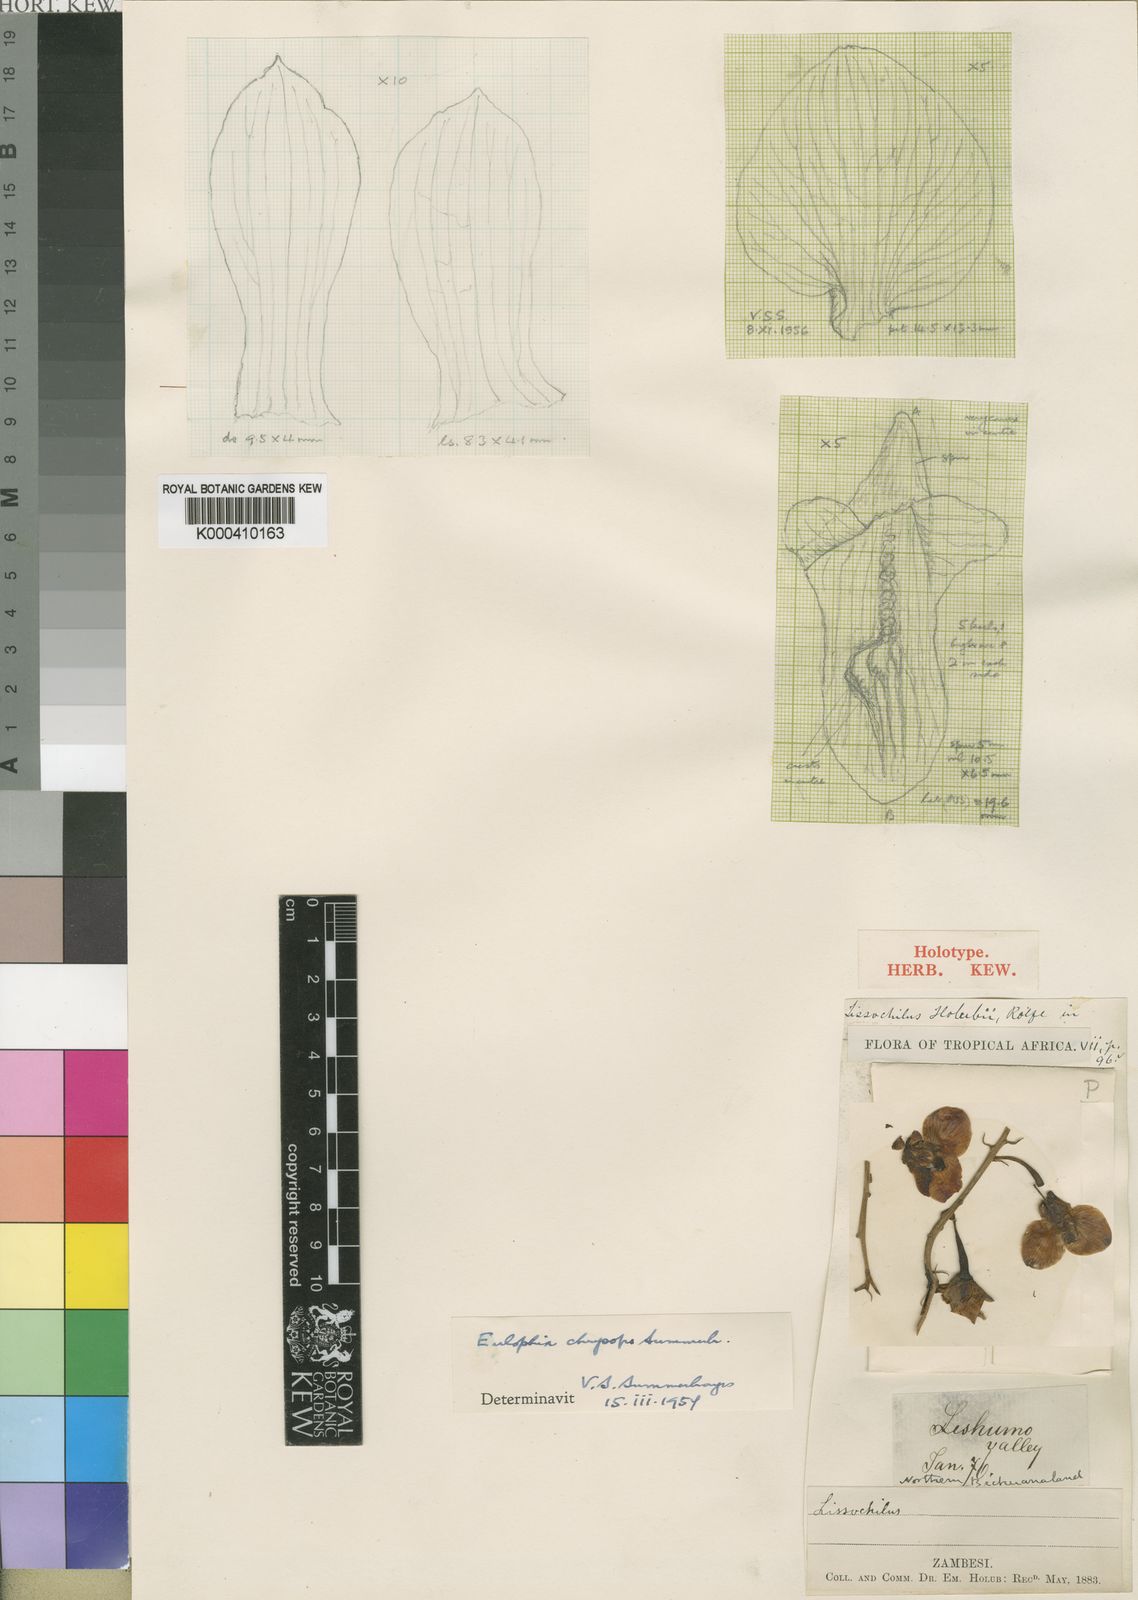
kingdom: Plantae
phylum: Tracheophyta
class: Liliopsida
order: Asparagales
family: Orchidaceae
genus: Eulophia
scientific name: Eulophia schweinfurthii
